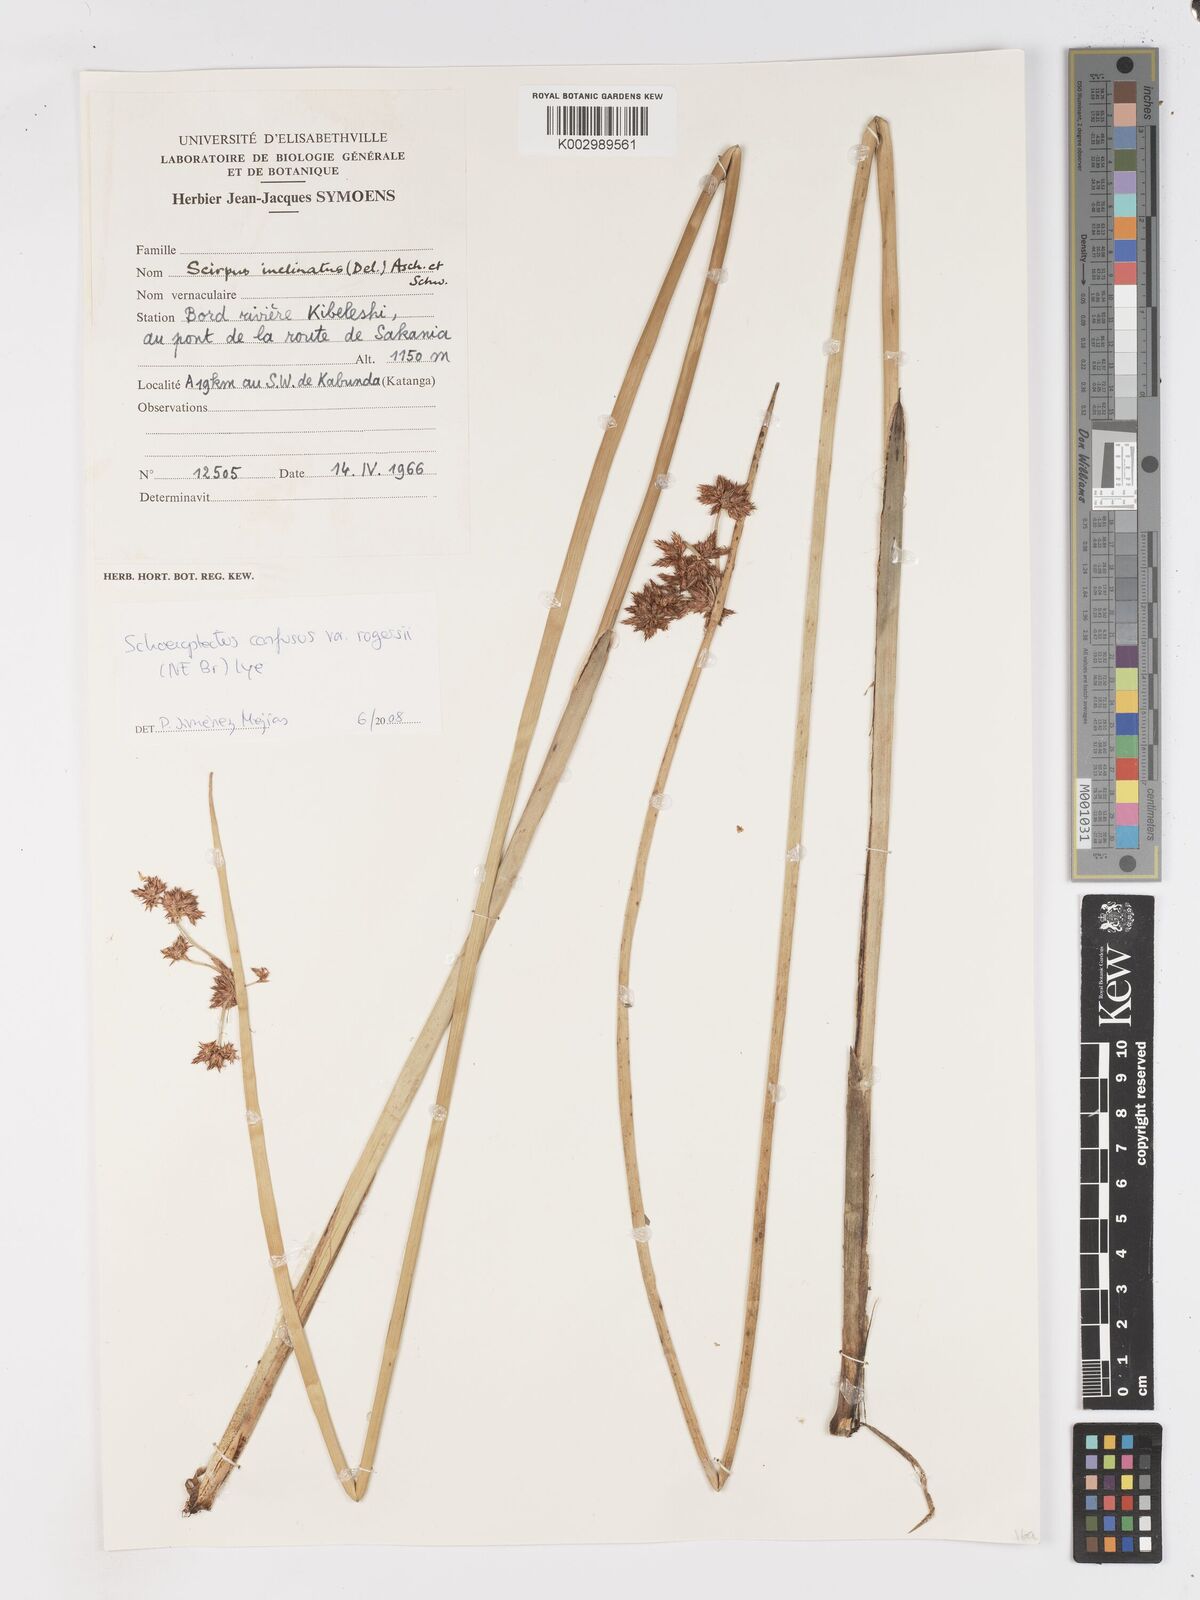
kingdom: Plantae
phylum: Tracheophyta
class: Liliopsida
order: Poales
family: Cyperaceae
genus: Schoenoplectiella
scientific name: Schoenoplectiella corymbosa
